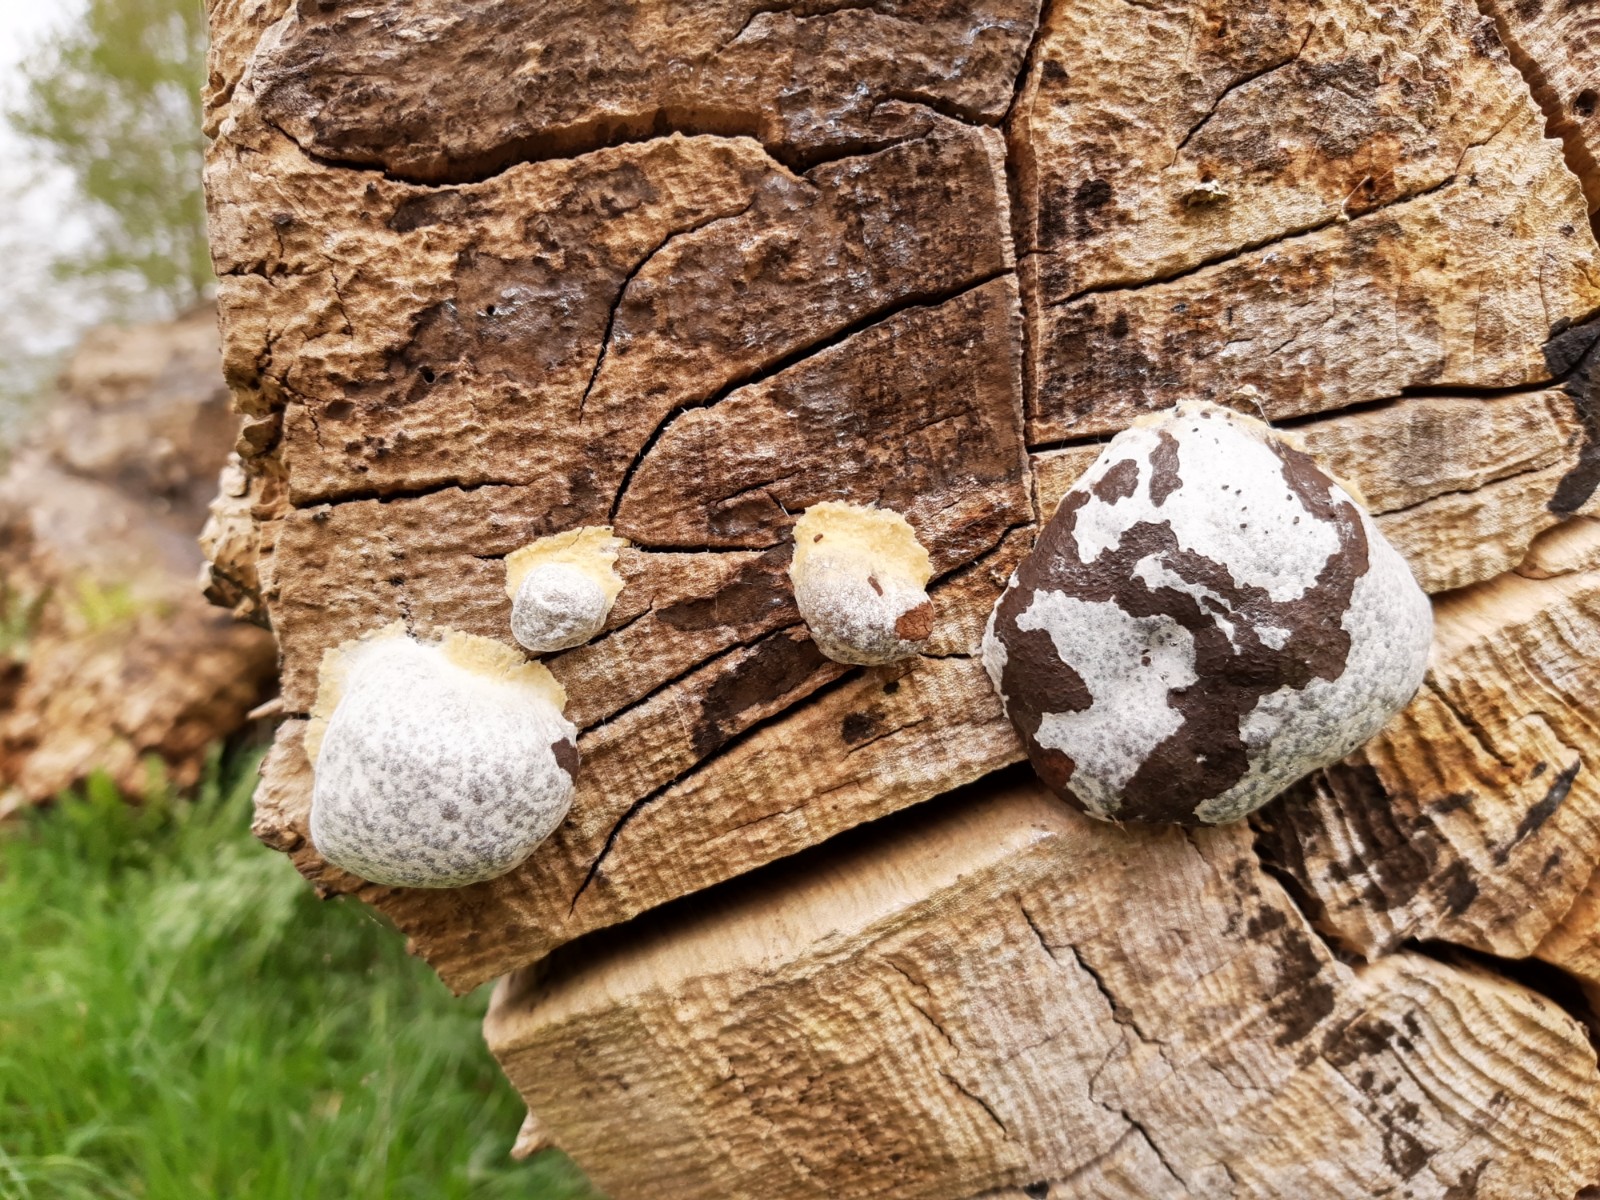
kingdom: Protozoa
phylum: Mycetozoa
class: Myxomycetes
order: Cribrariales
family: Tubiferaceae
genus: Reticularia
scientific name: Reticularia lycoperdon
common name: skinnende støvpude
